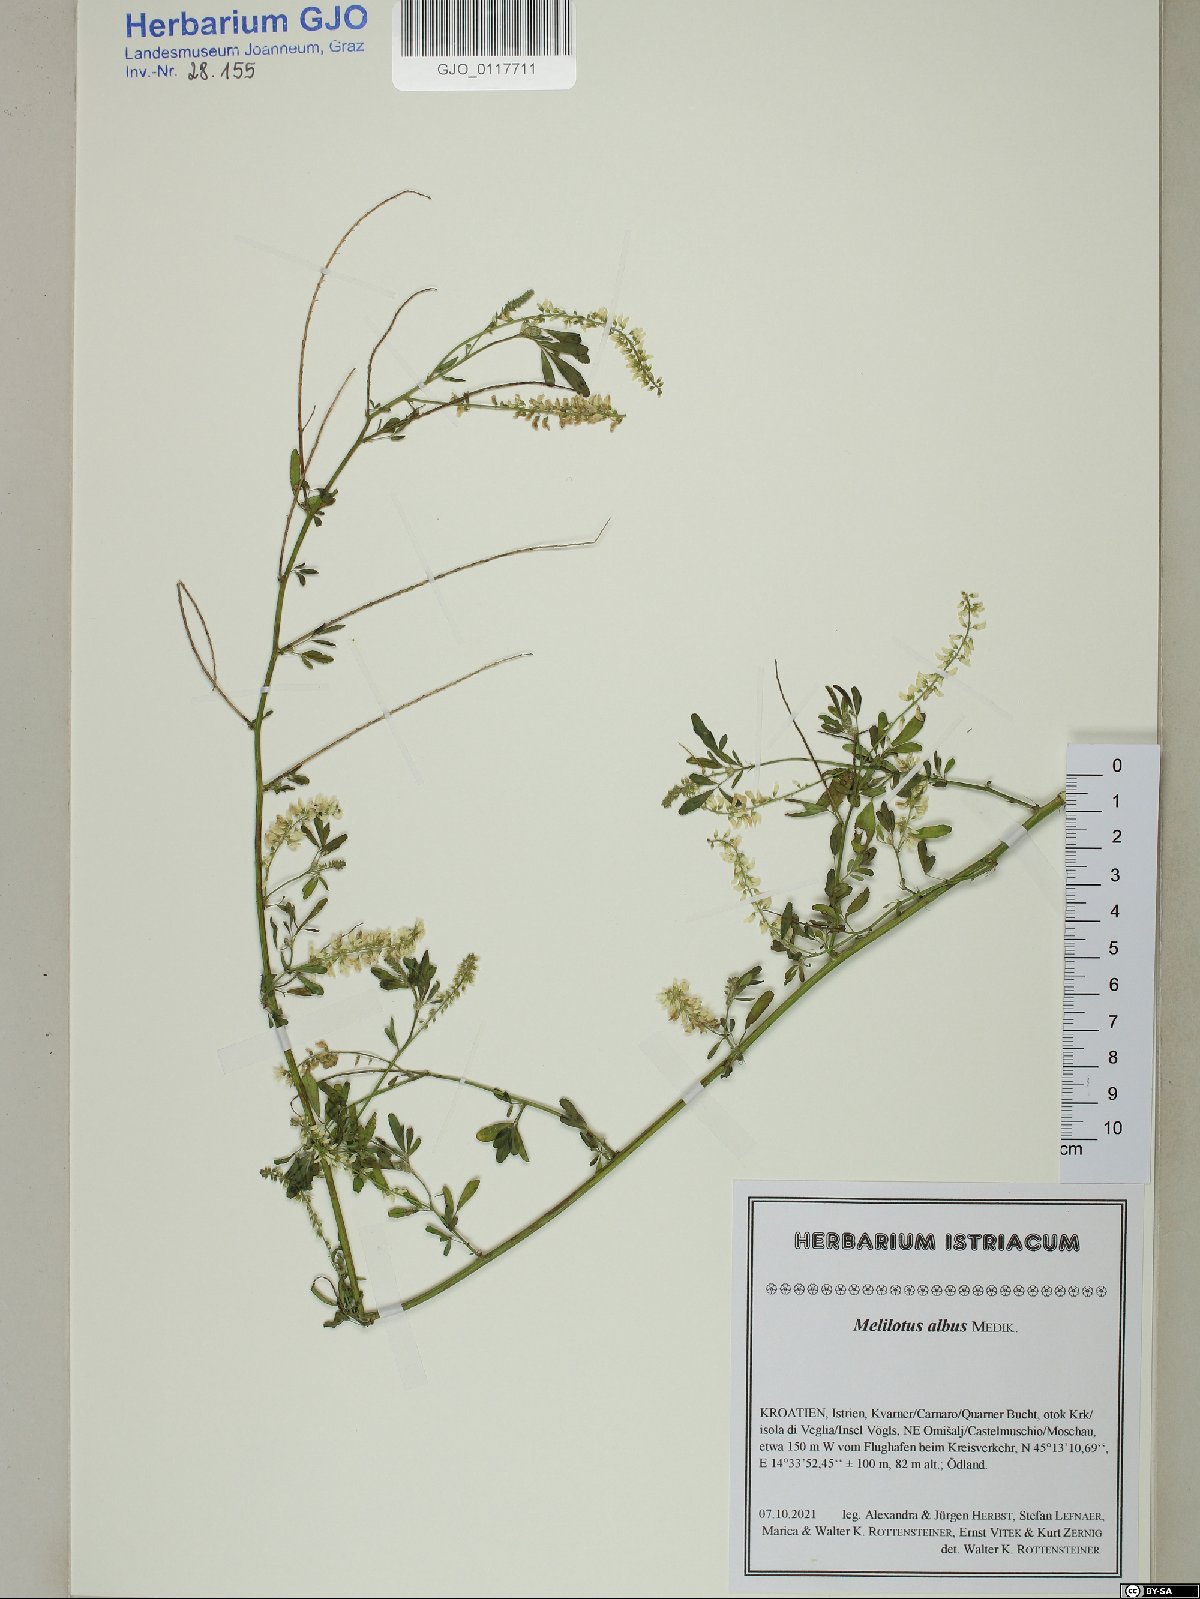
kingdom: Plantae
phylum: Tracheophyta
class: Magnoliopsida
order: Fabales
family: Fabaceae
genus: Melilotus
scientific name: Melilotus albus
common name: White melilot
